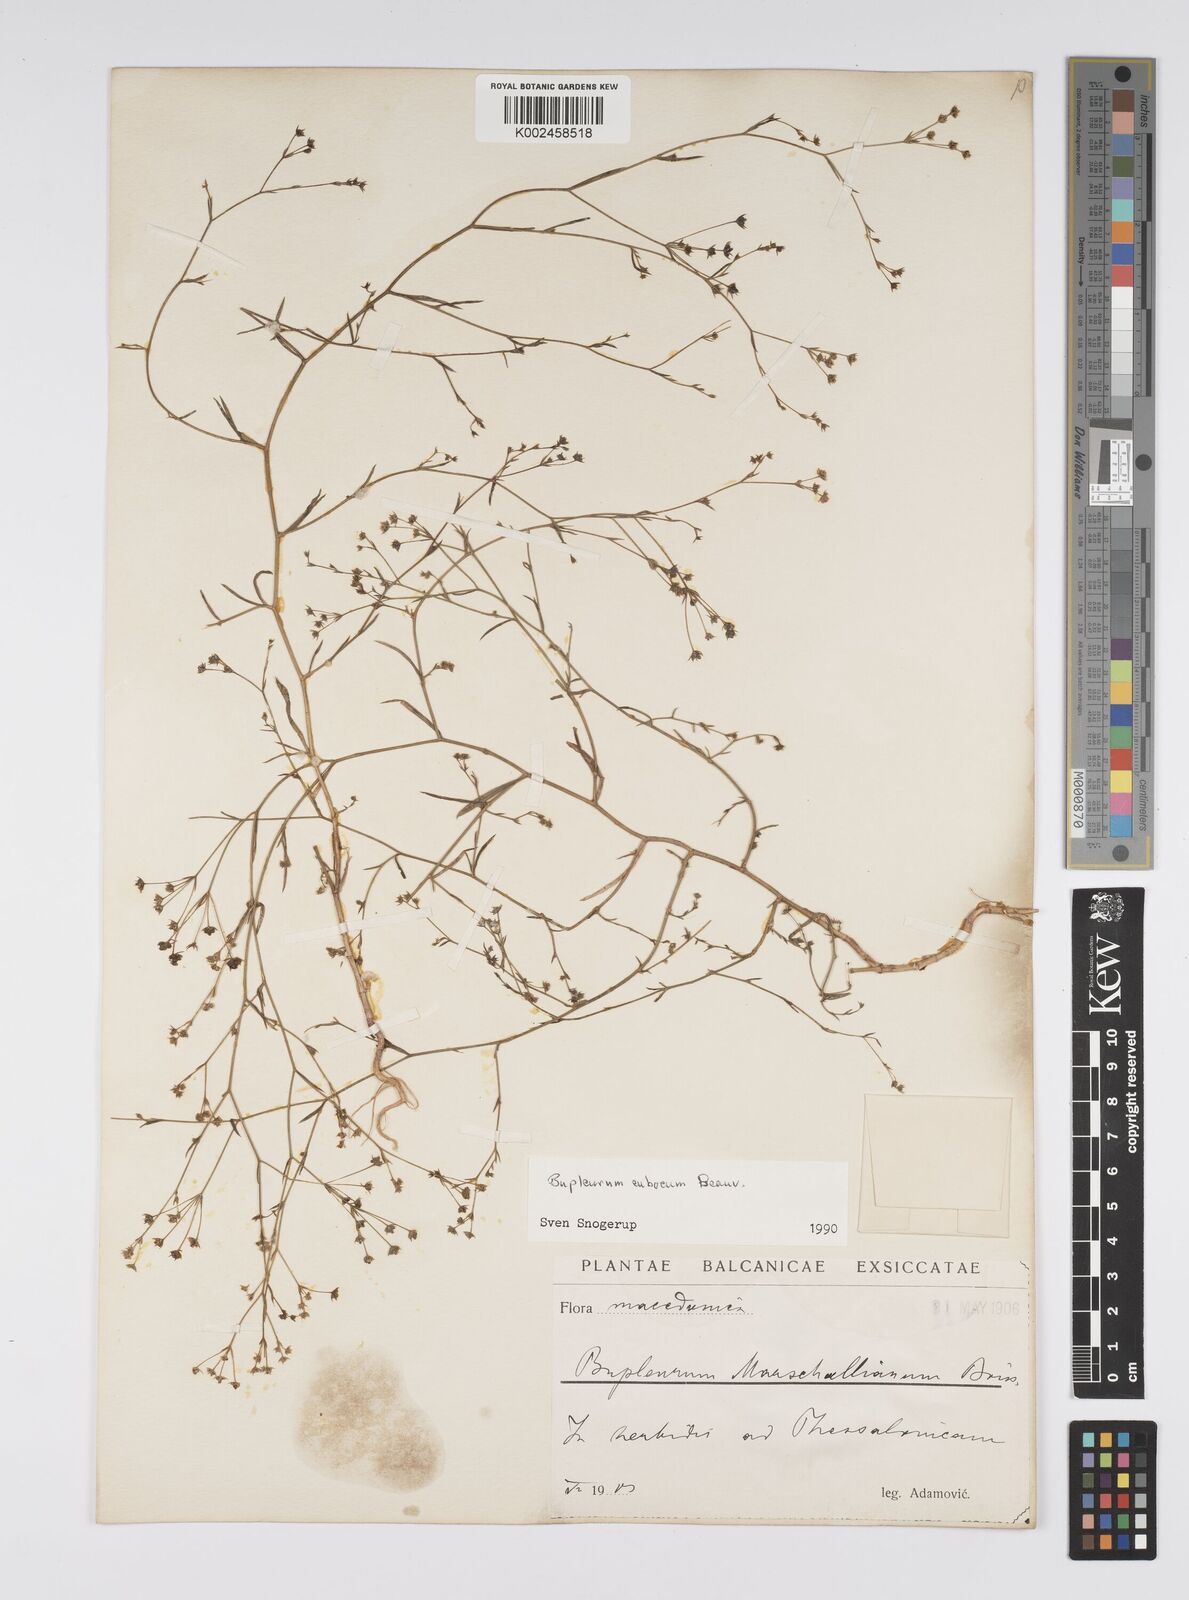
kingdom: Plantae
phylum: Tracheophyta
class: Magnoliopsida
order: Apiales
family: Apiaceae
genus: Bupleurum
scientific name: Bupleurum tenuissimum
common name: Slender hare's-ear
